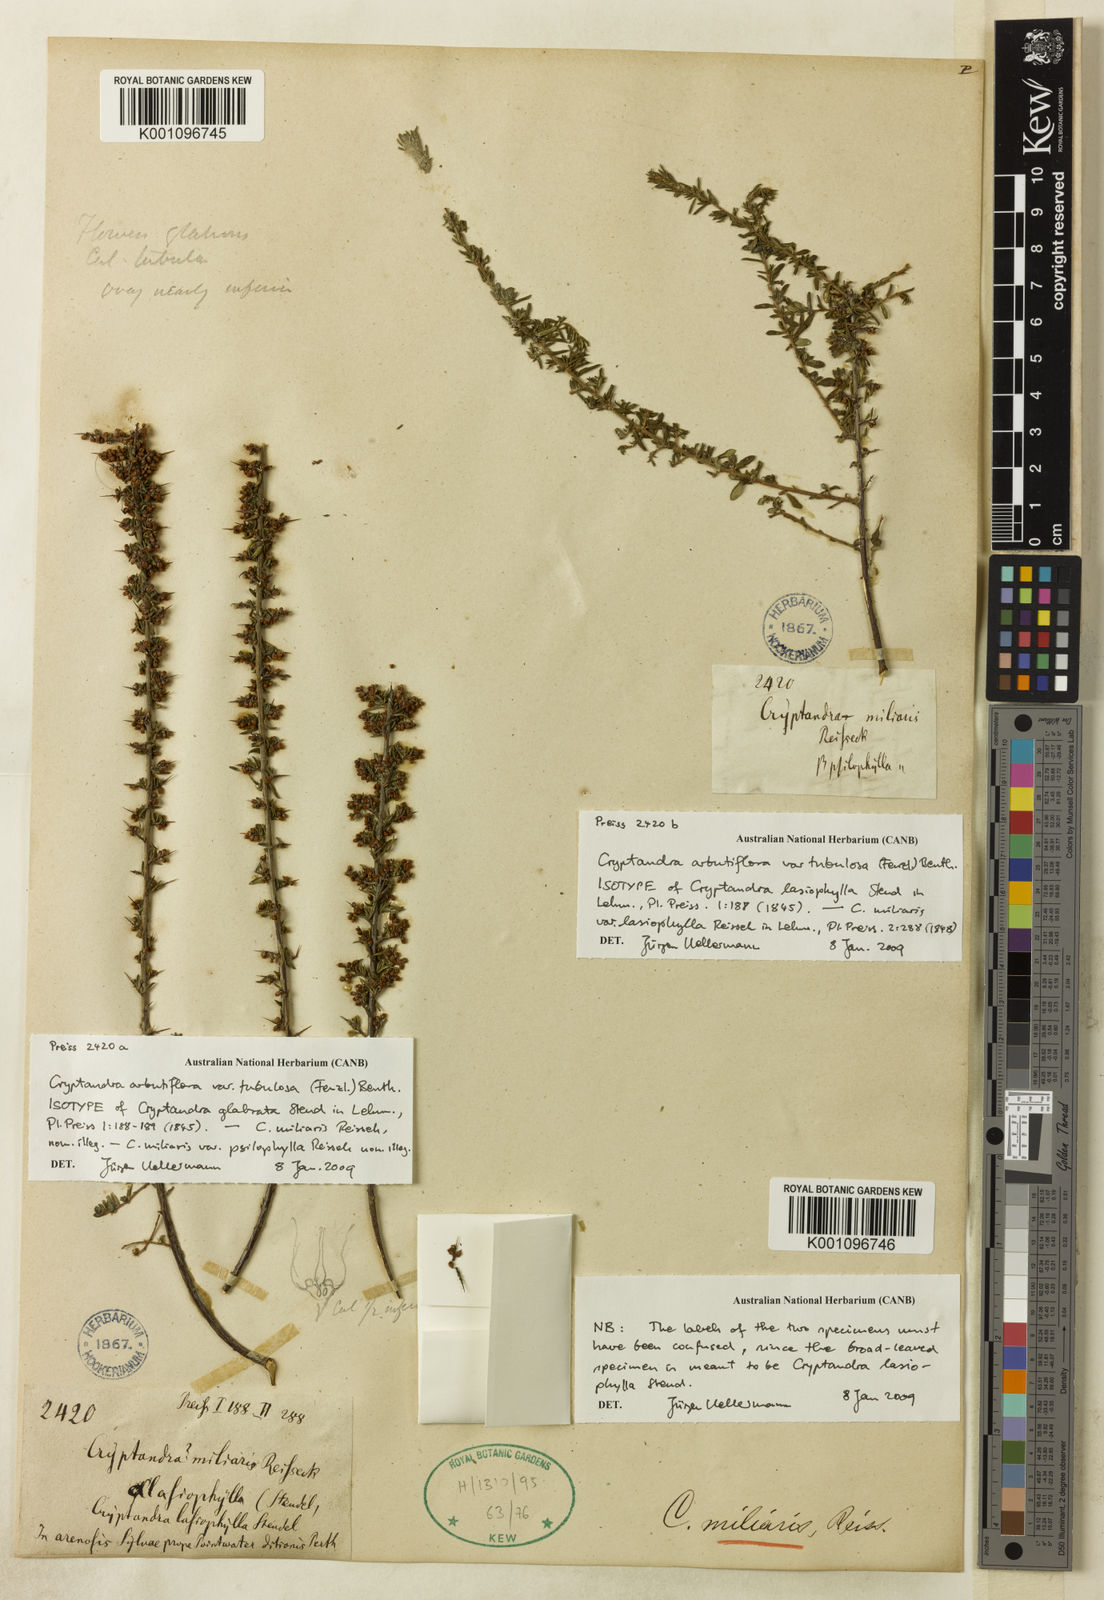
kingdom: Plantae
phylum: Tracheophyta
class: Magnoliopsida
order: Rosales
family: Rhamnaceae
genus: Cryptandra
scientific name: Cryptandra tubulosa
